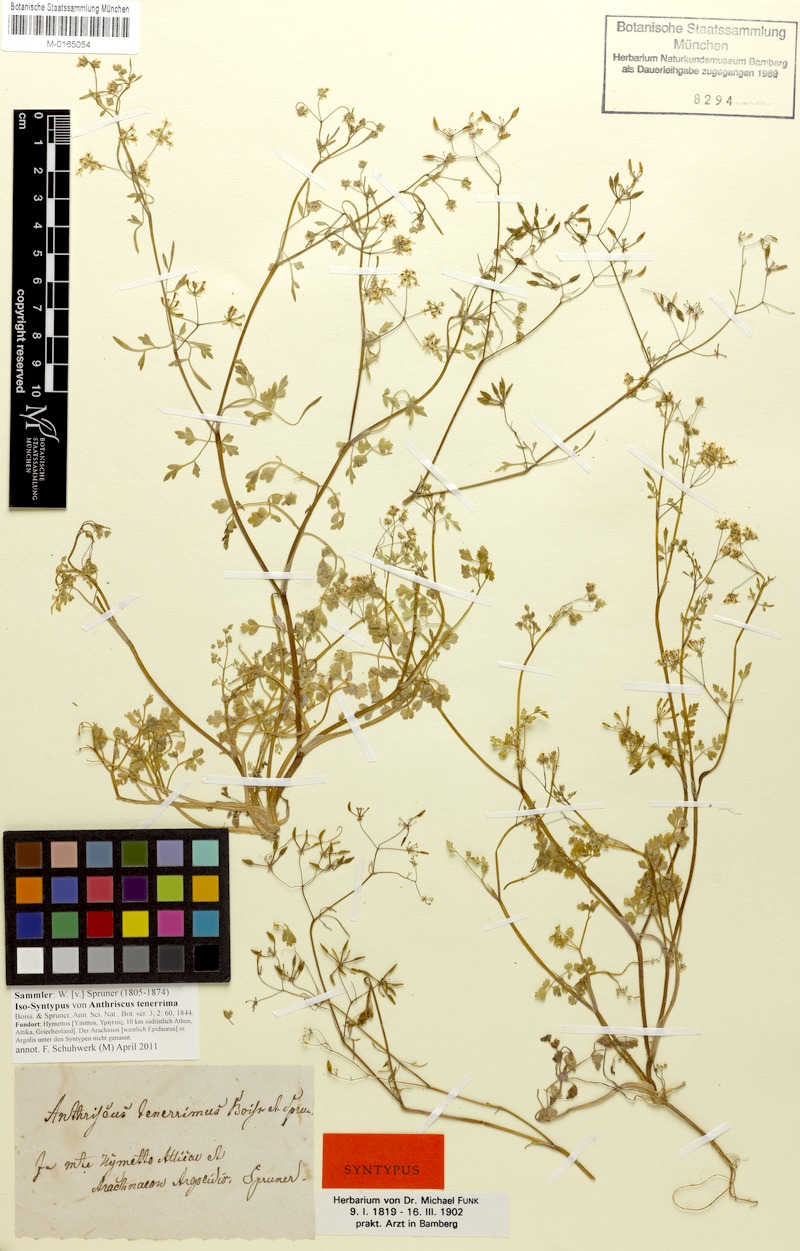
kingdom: Plantae
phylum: Tracheophyta
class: Magnoliopsida
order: Apiales
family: Apiaceae
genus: Anthriscus
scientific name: Anthriscus tenerrima
